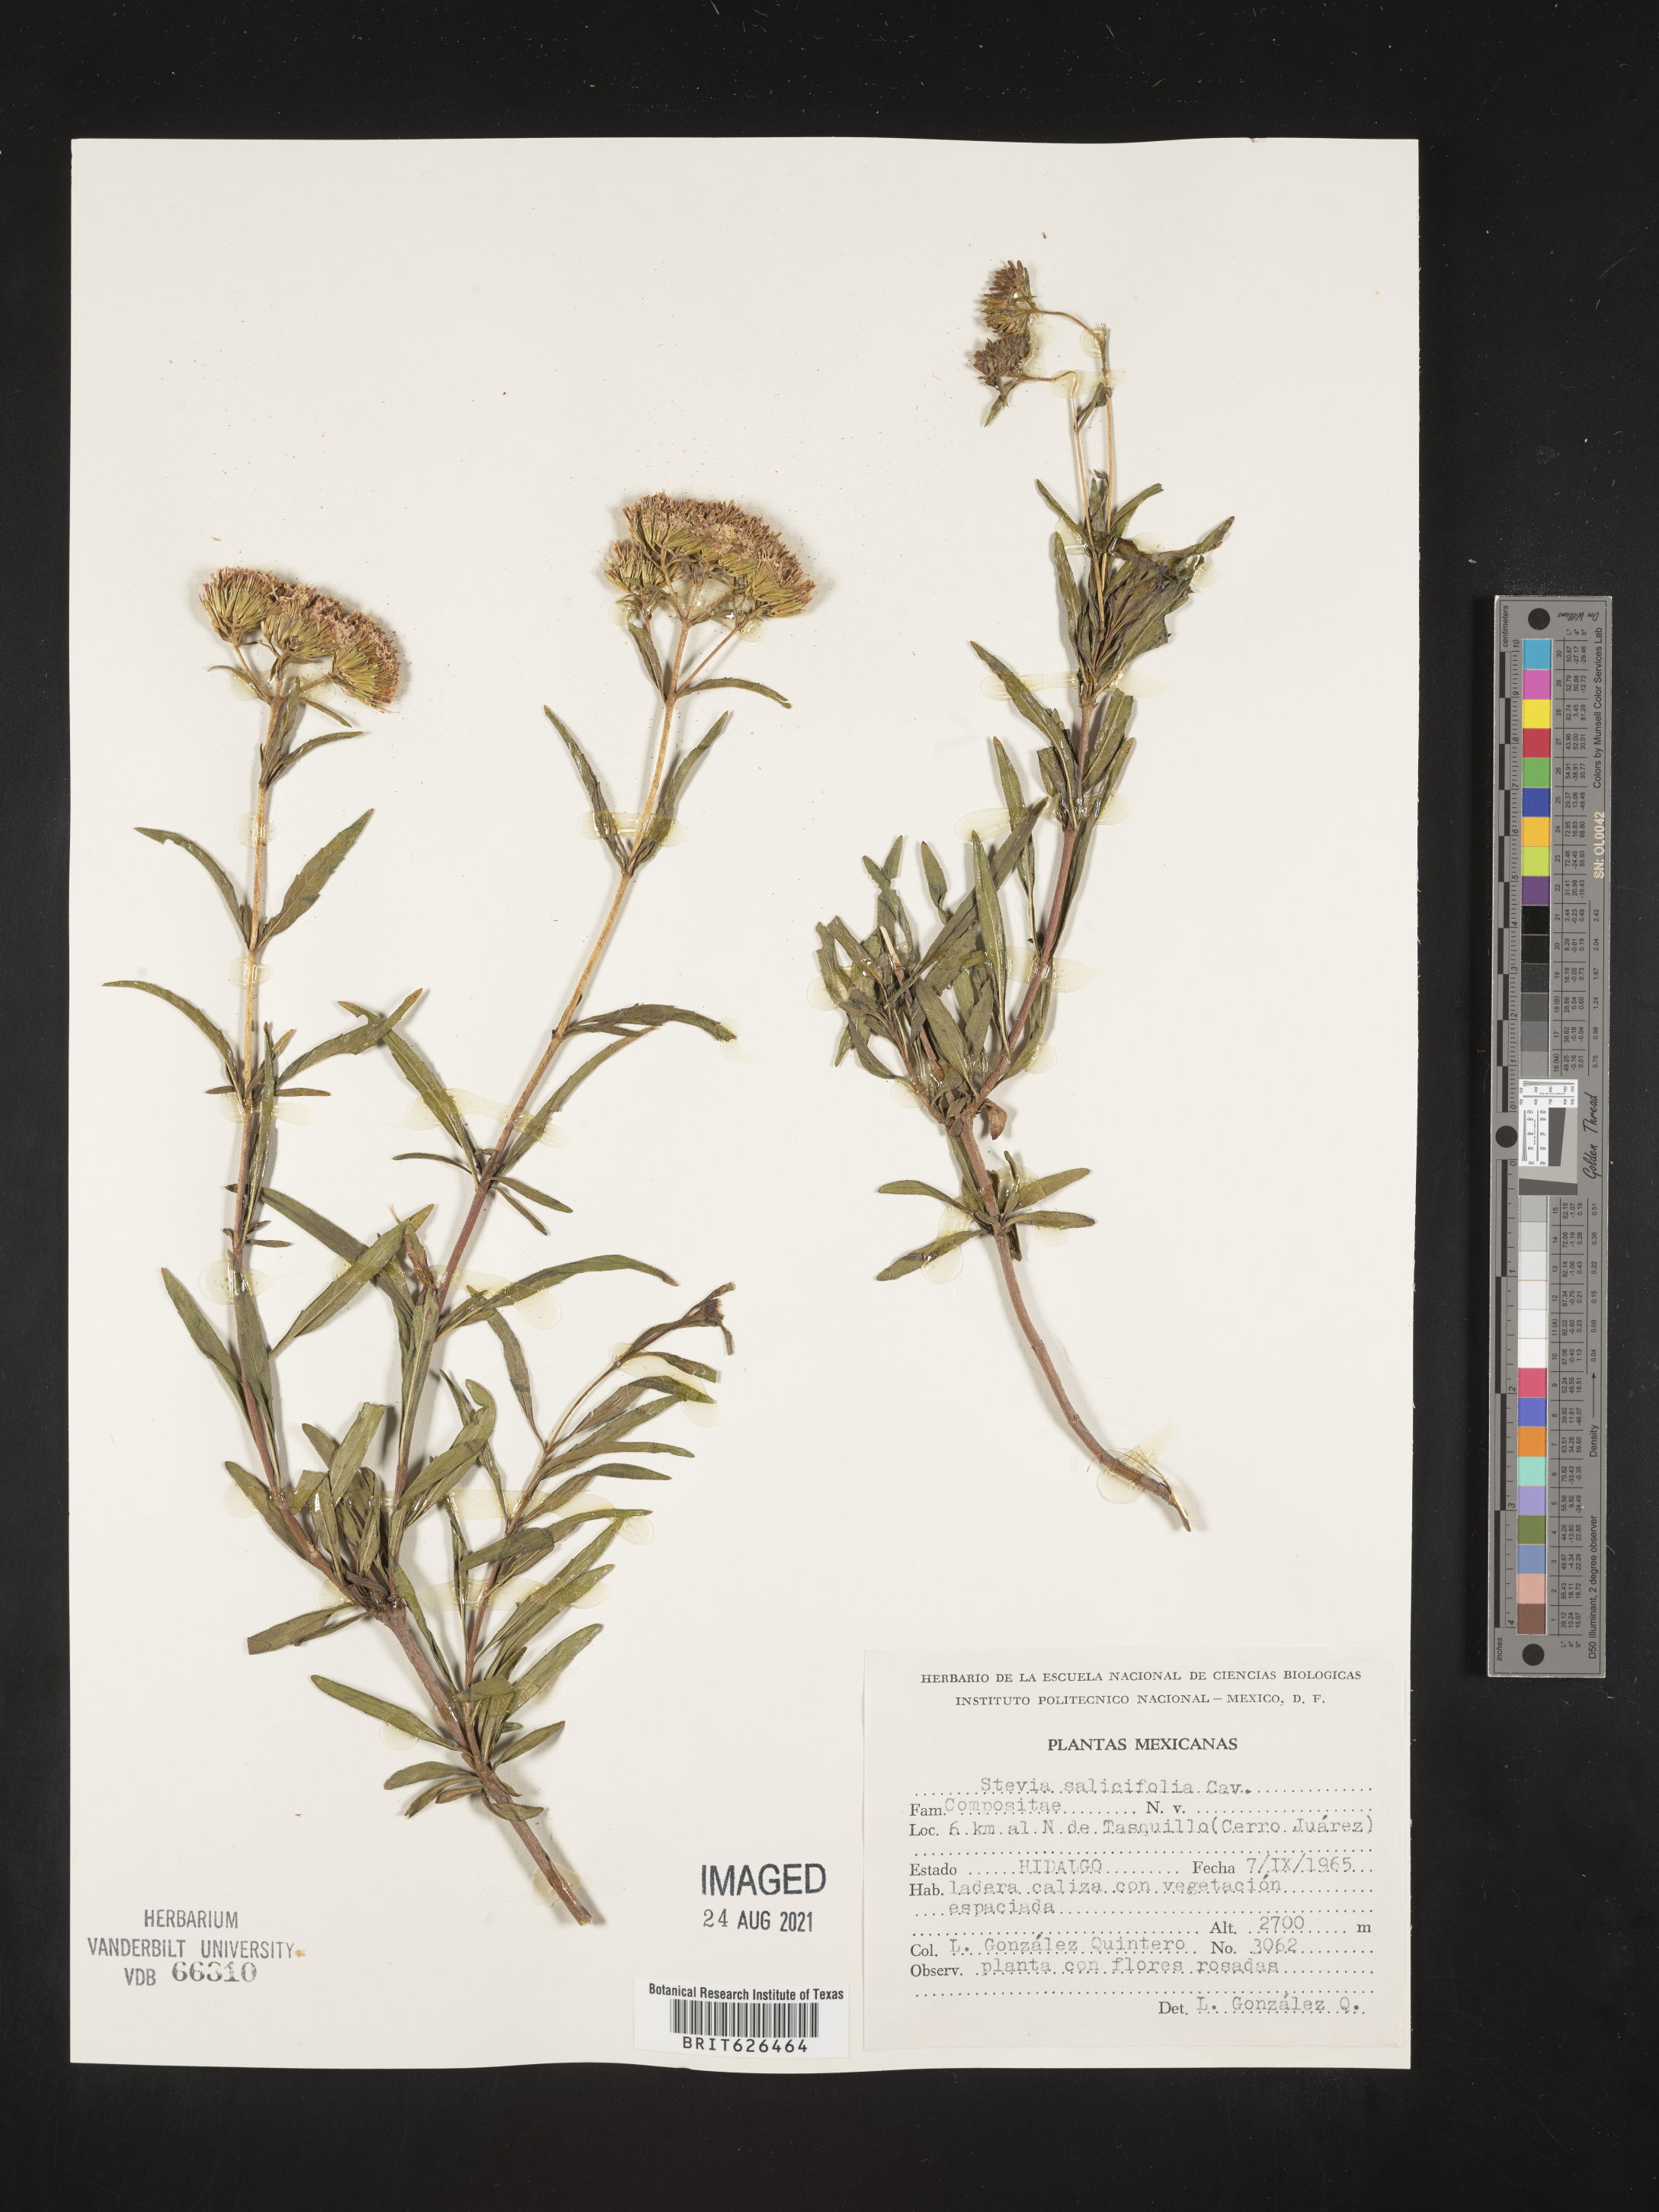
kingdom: Plantae
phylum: Tracheophyta
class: Magnoliopsida
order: Asterales
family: Asteraceae
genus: Stevia
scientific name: Stevia
